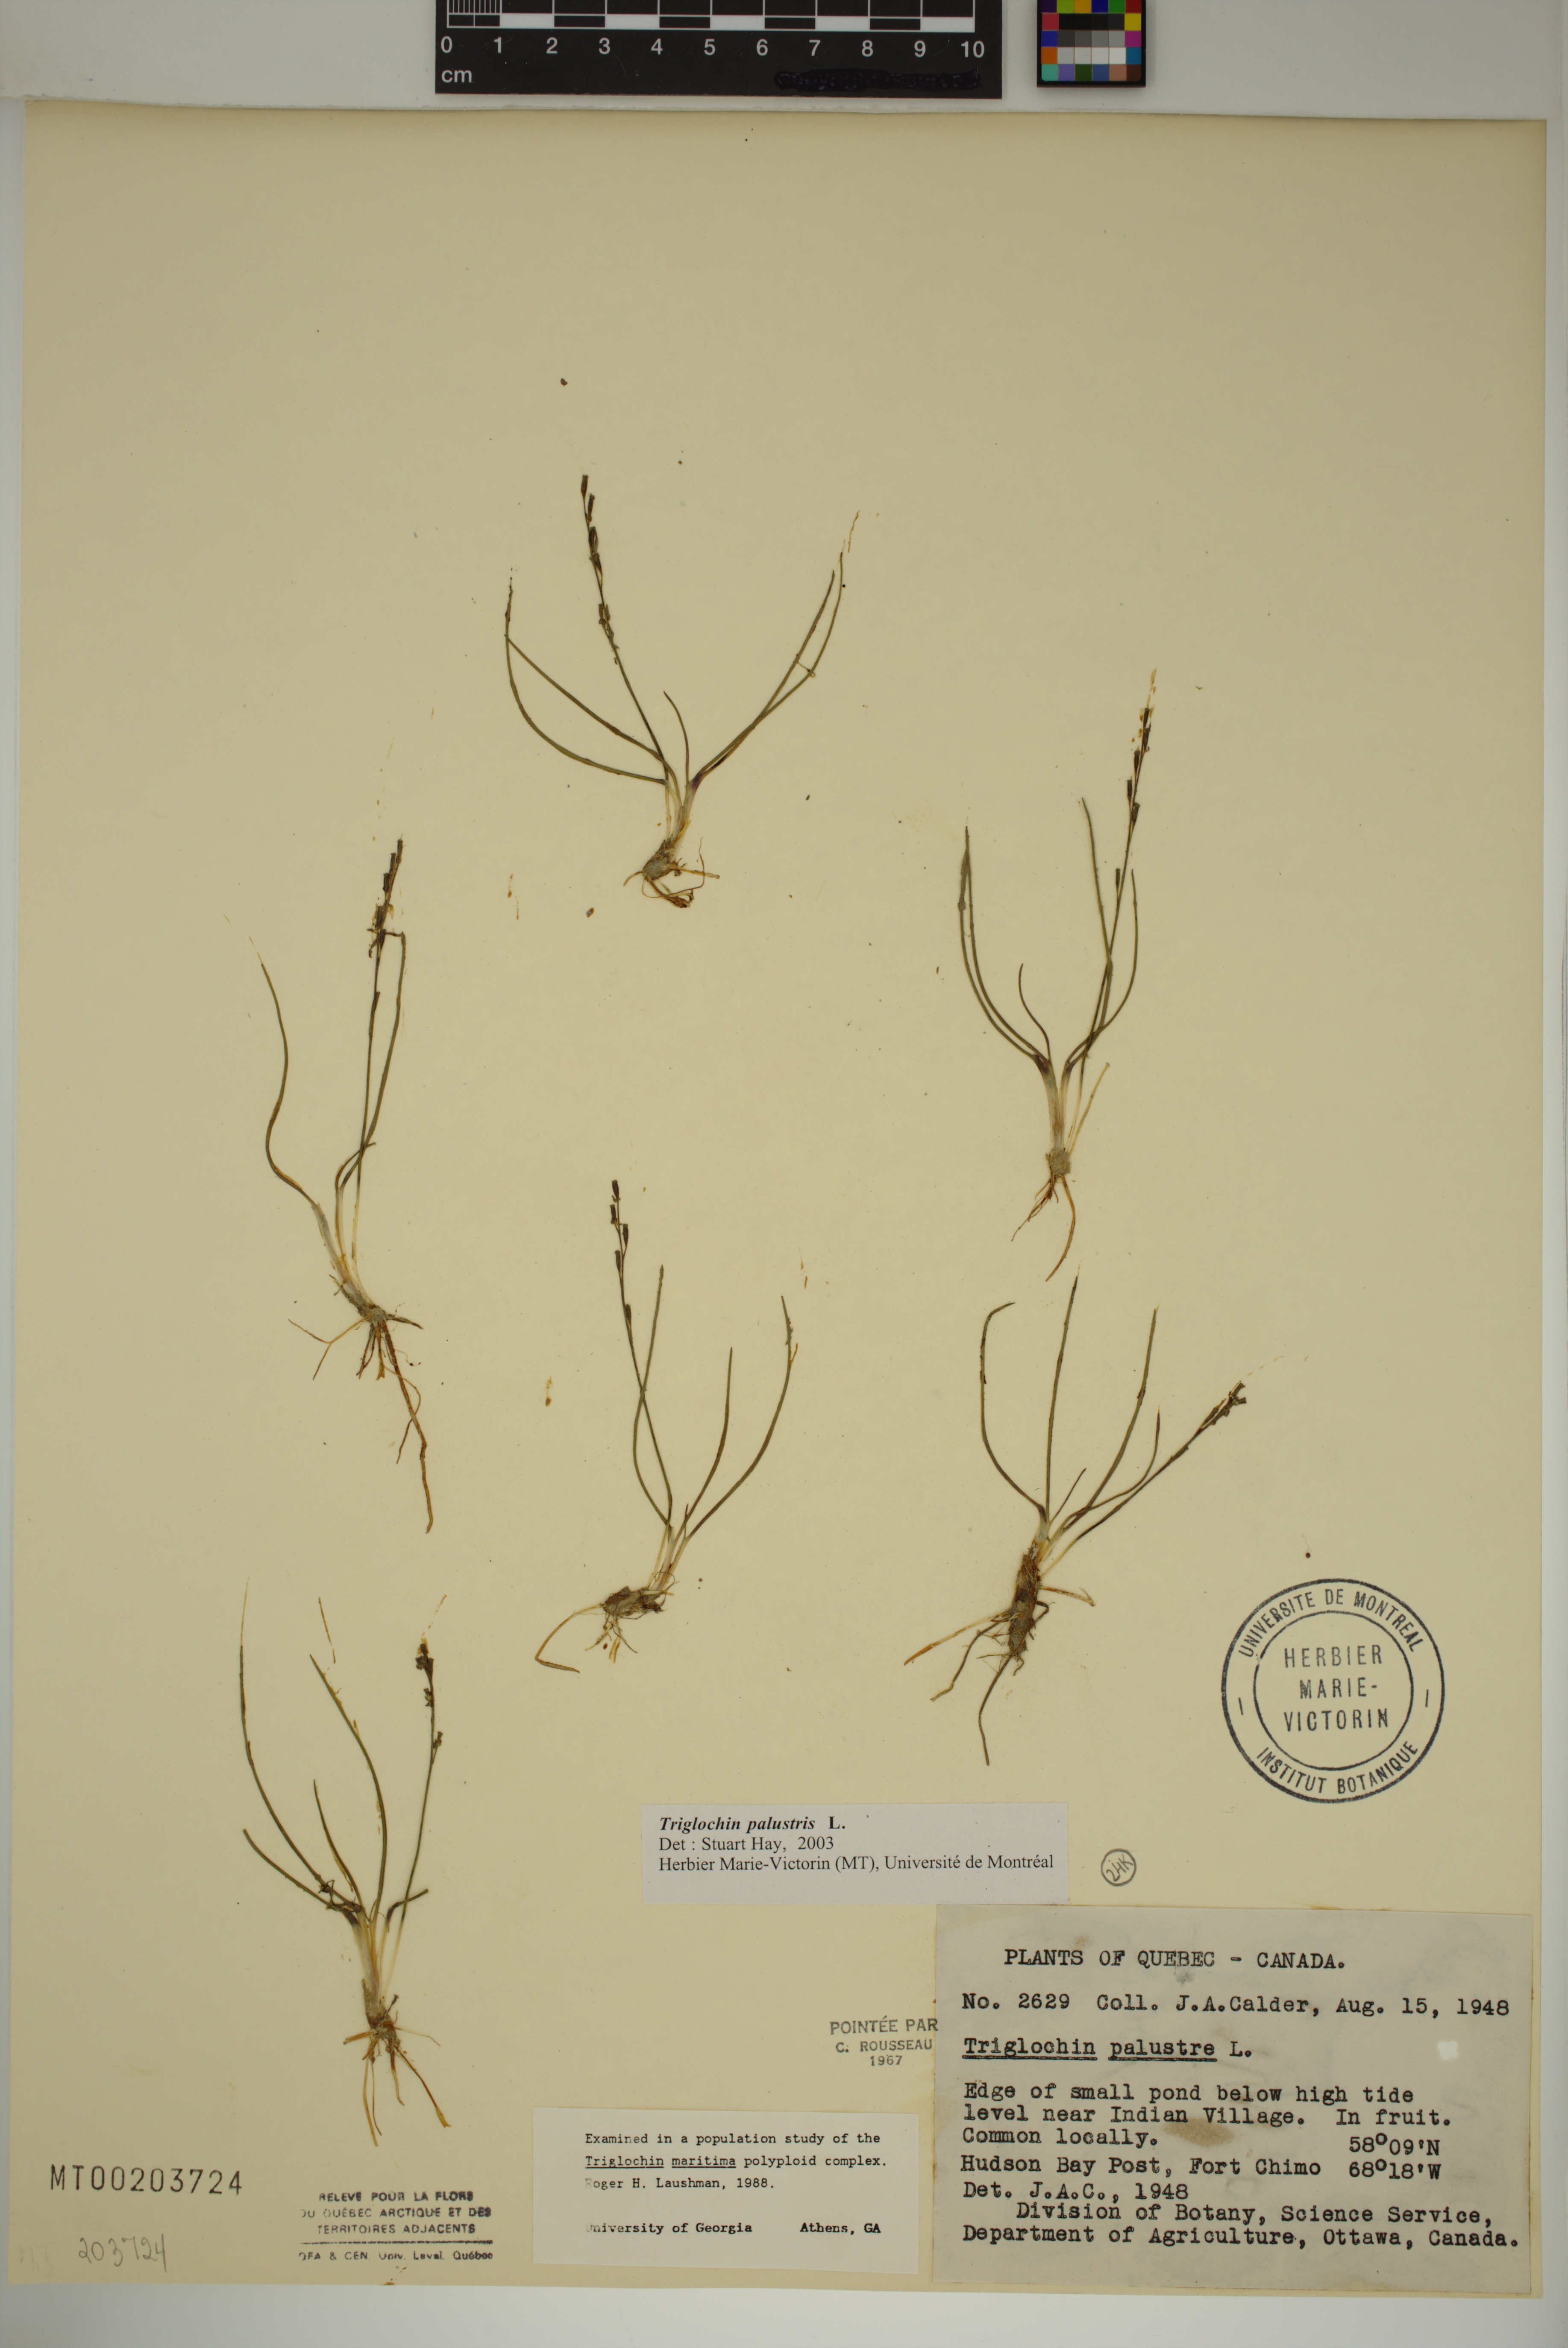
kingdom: Plantae
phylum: Tracheophyta
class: Liliopsida
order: Alismatales
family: Juncaginaceae
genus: Triglochin
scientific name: Triglochin palustris
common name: Marsh arrowgrass
